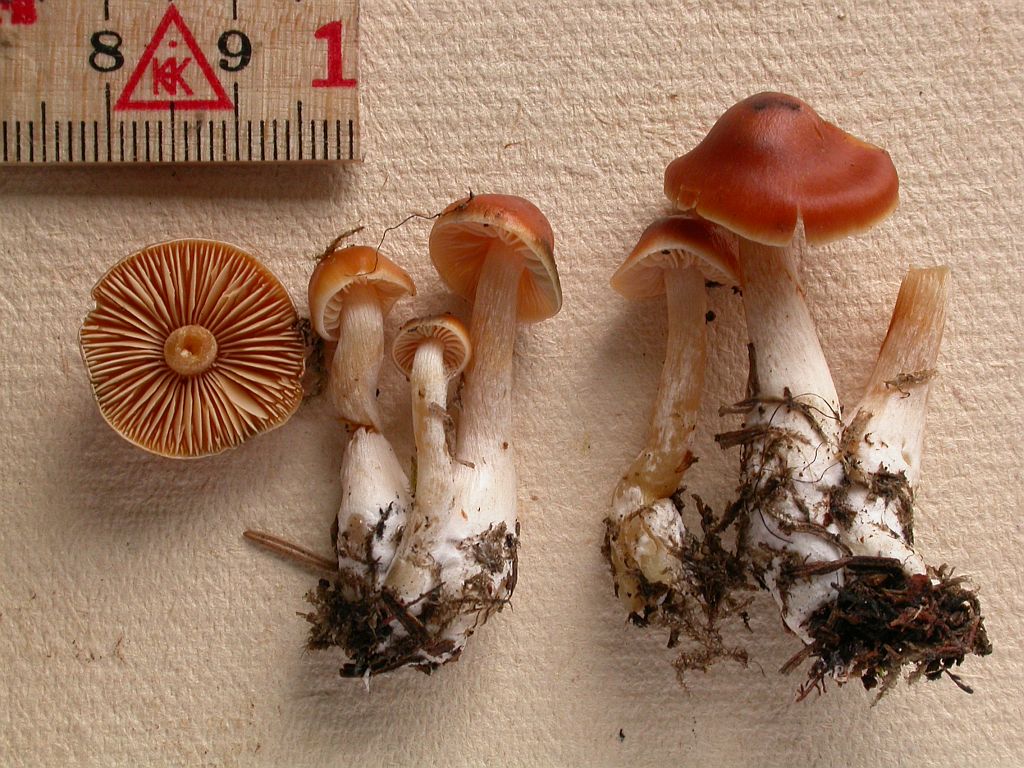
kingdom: Fungi
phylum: Basidiomycota
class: Agaricomycetes
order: Agaricales
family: Cortinariaceae
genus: Thaxterogaster
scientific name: Thaxterogaster
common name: bitter slørhat
